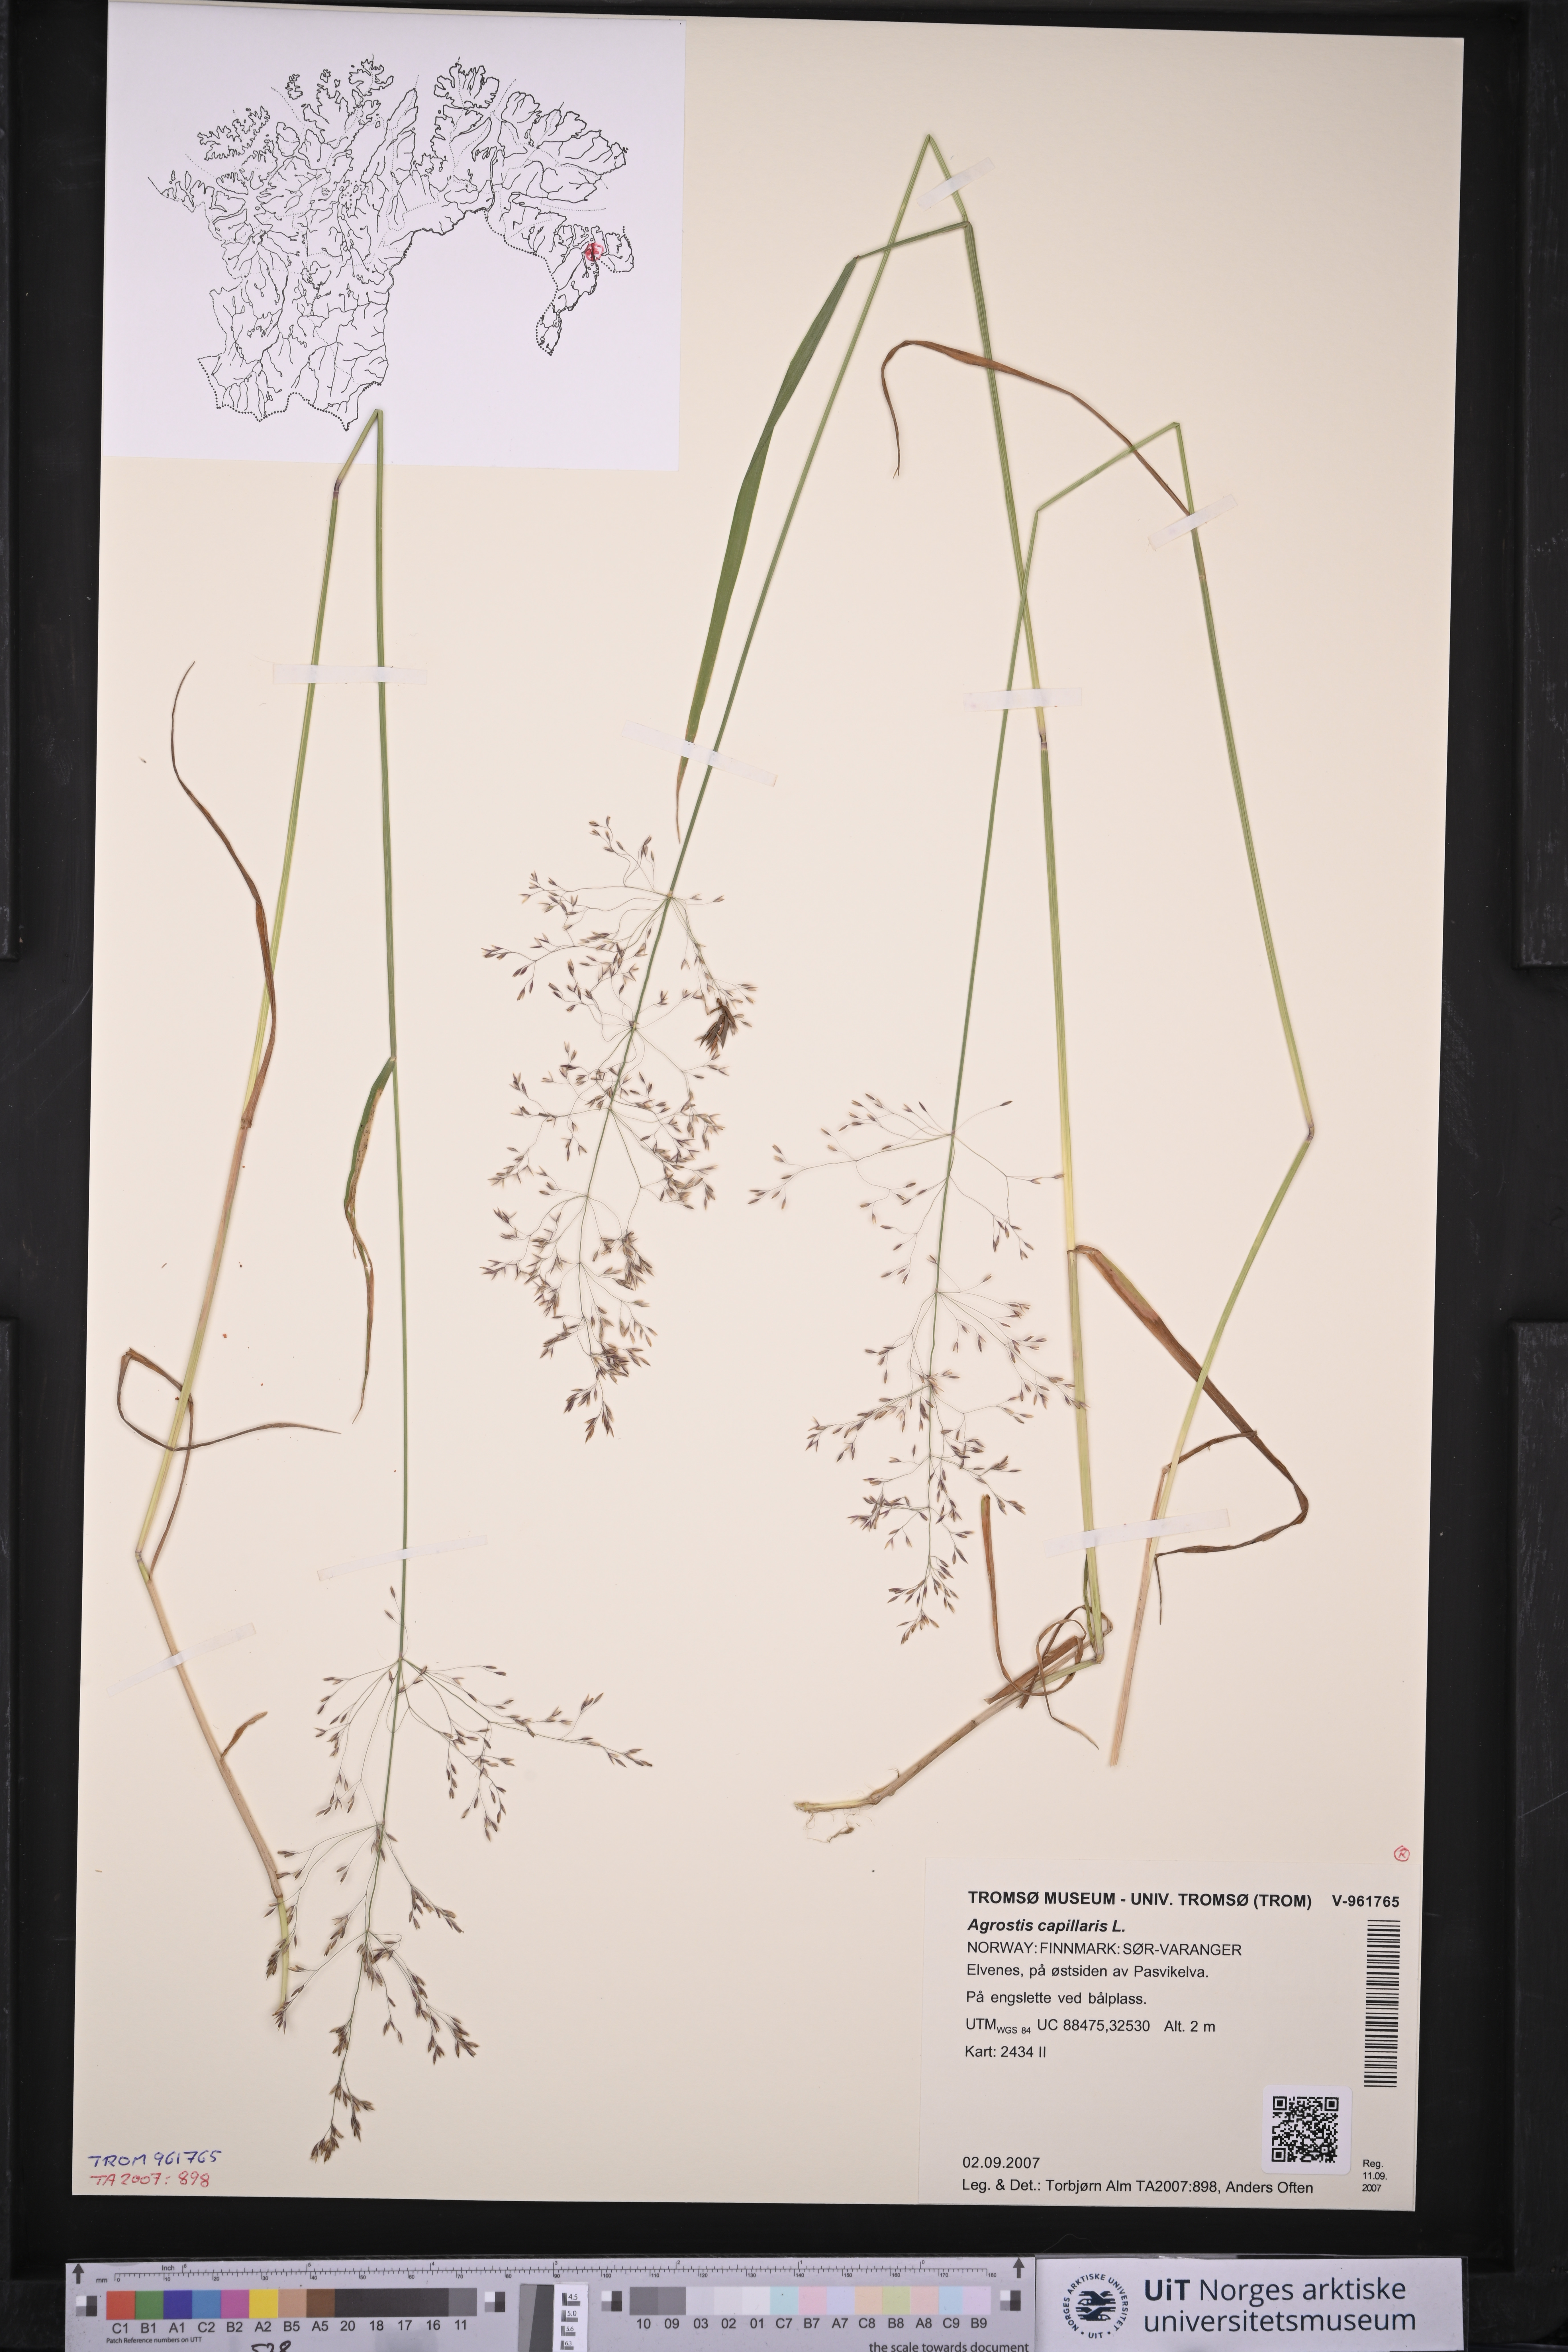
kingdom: Plantae
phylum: Tracheophyta
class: Liliopsida
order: Poales
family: Poaceae
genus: Agrostis
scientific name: Agrostis capillaris
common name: Colonial bentgrass
